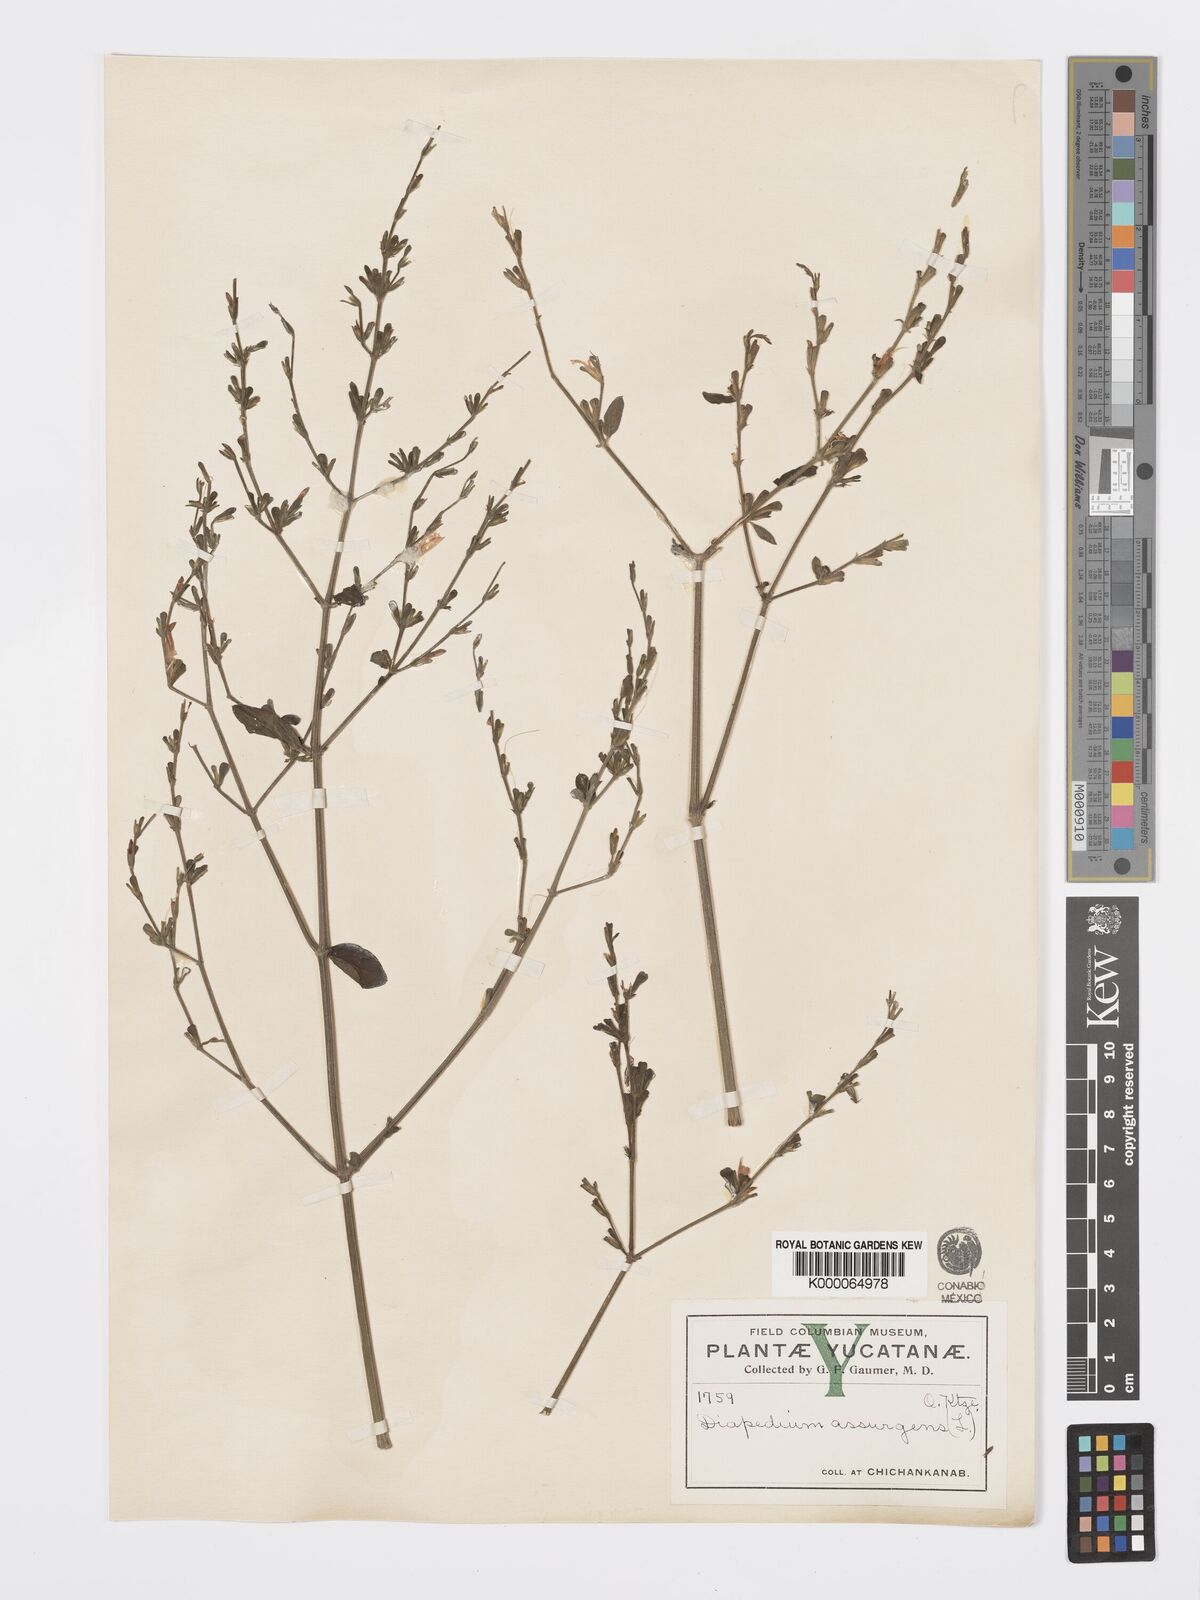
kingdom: Plantae
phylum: Tracheophyta
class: Magnoliopsida
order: Lamiales
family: Acanthaceae
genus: Dicliptera
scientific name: Dicliptera sexangularis
